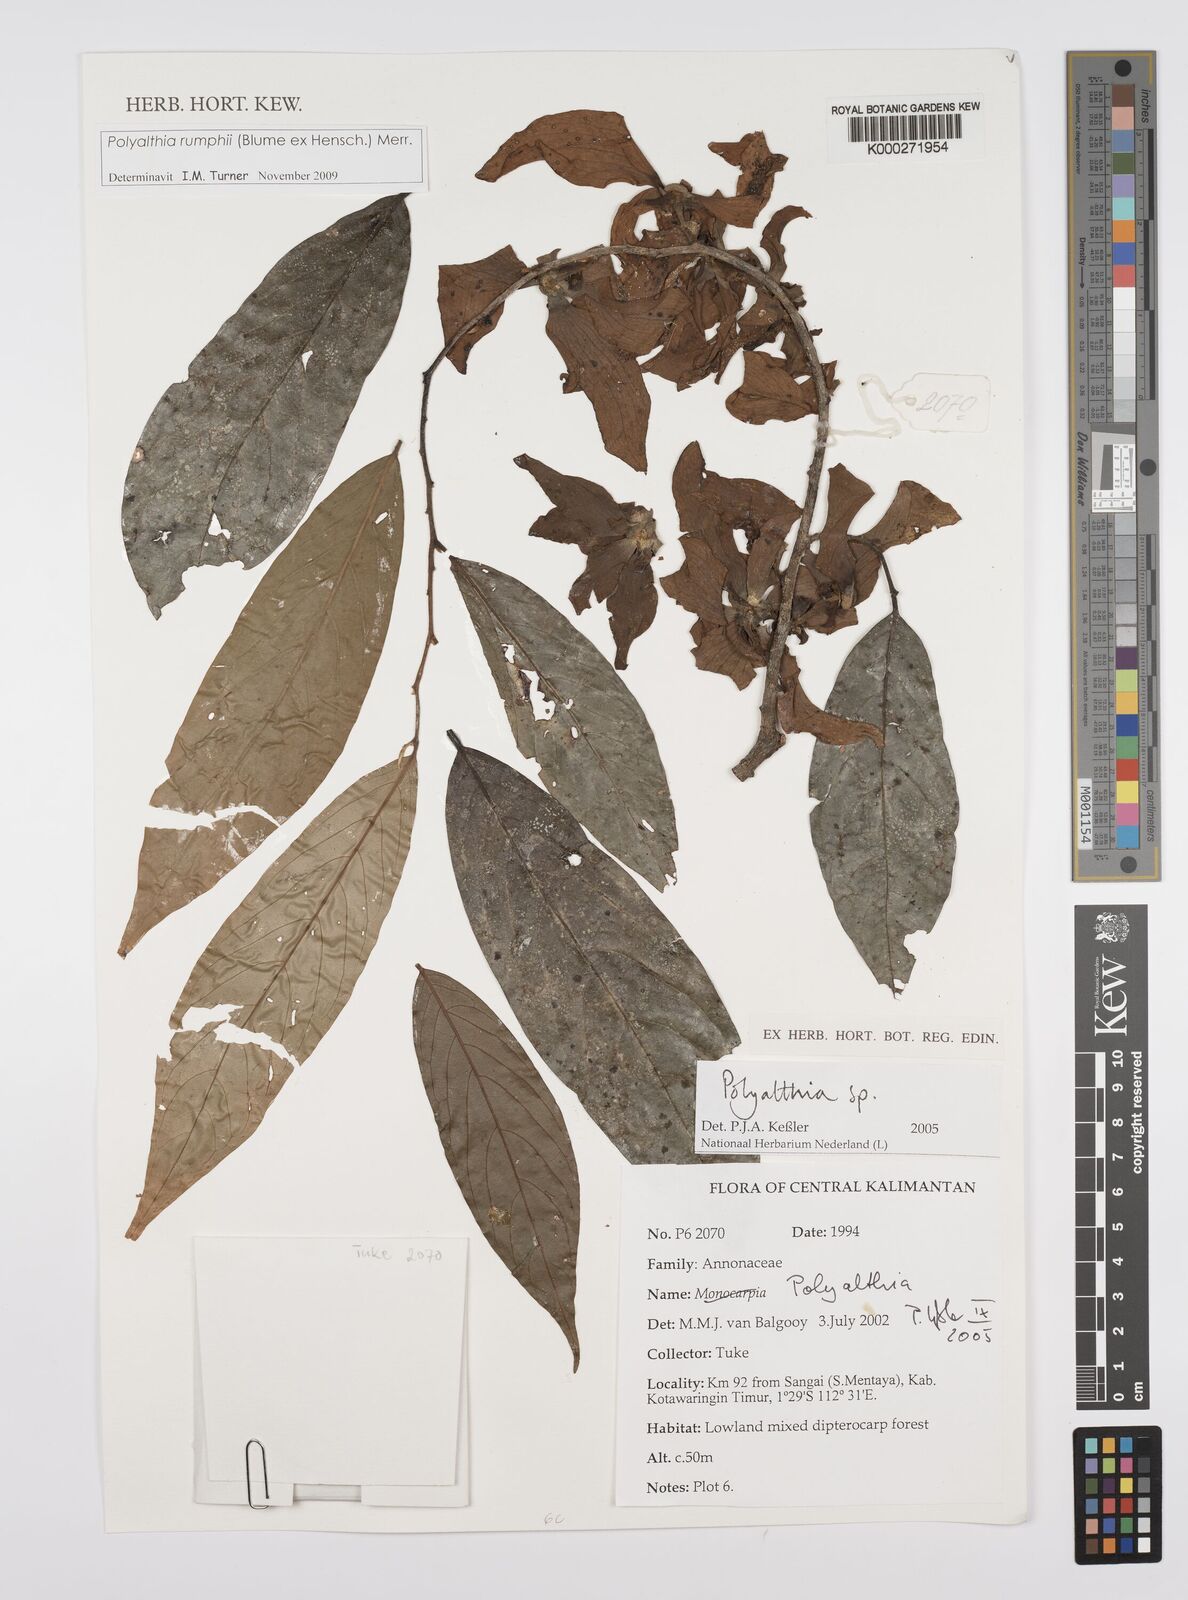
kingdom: Plantae
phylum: Tracheophyta
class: Magnoliopsida
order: Magnoliales
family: Annonaceae
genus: Polyalthia
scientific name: Polyalthia
